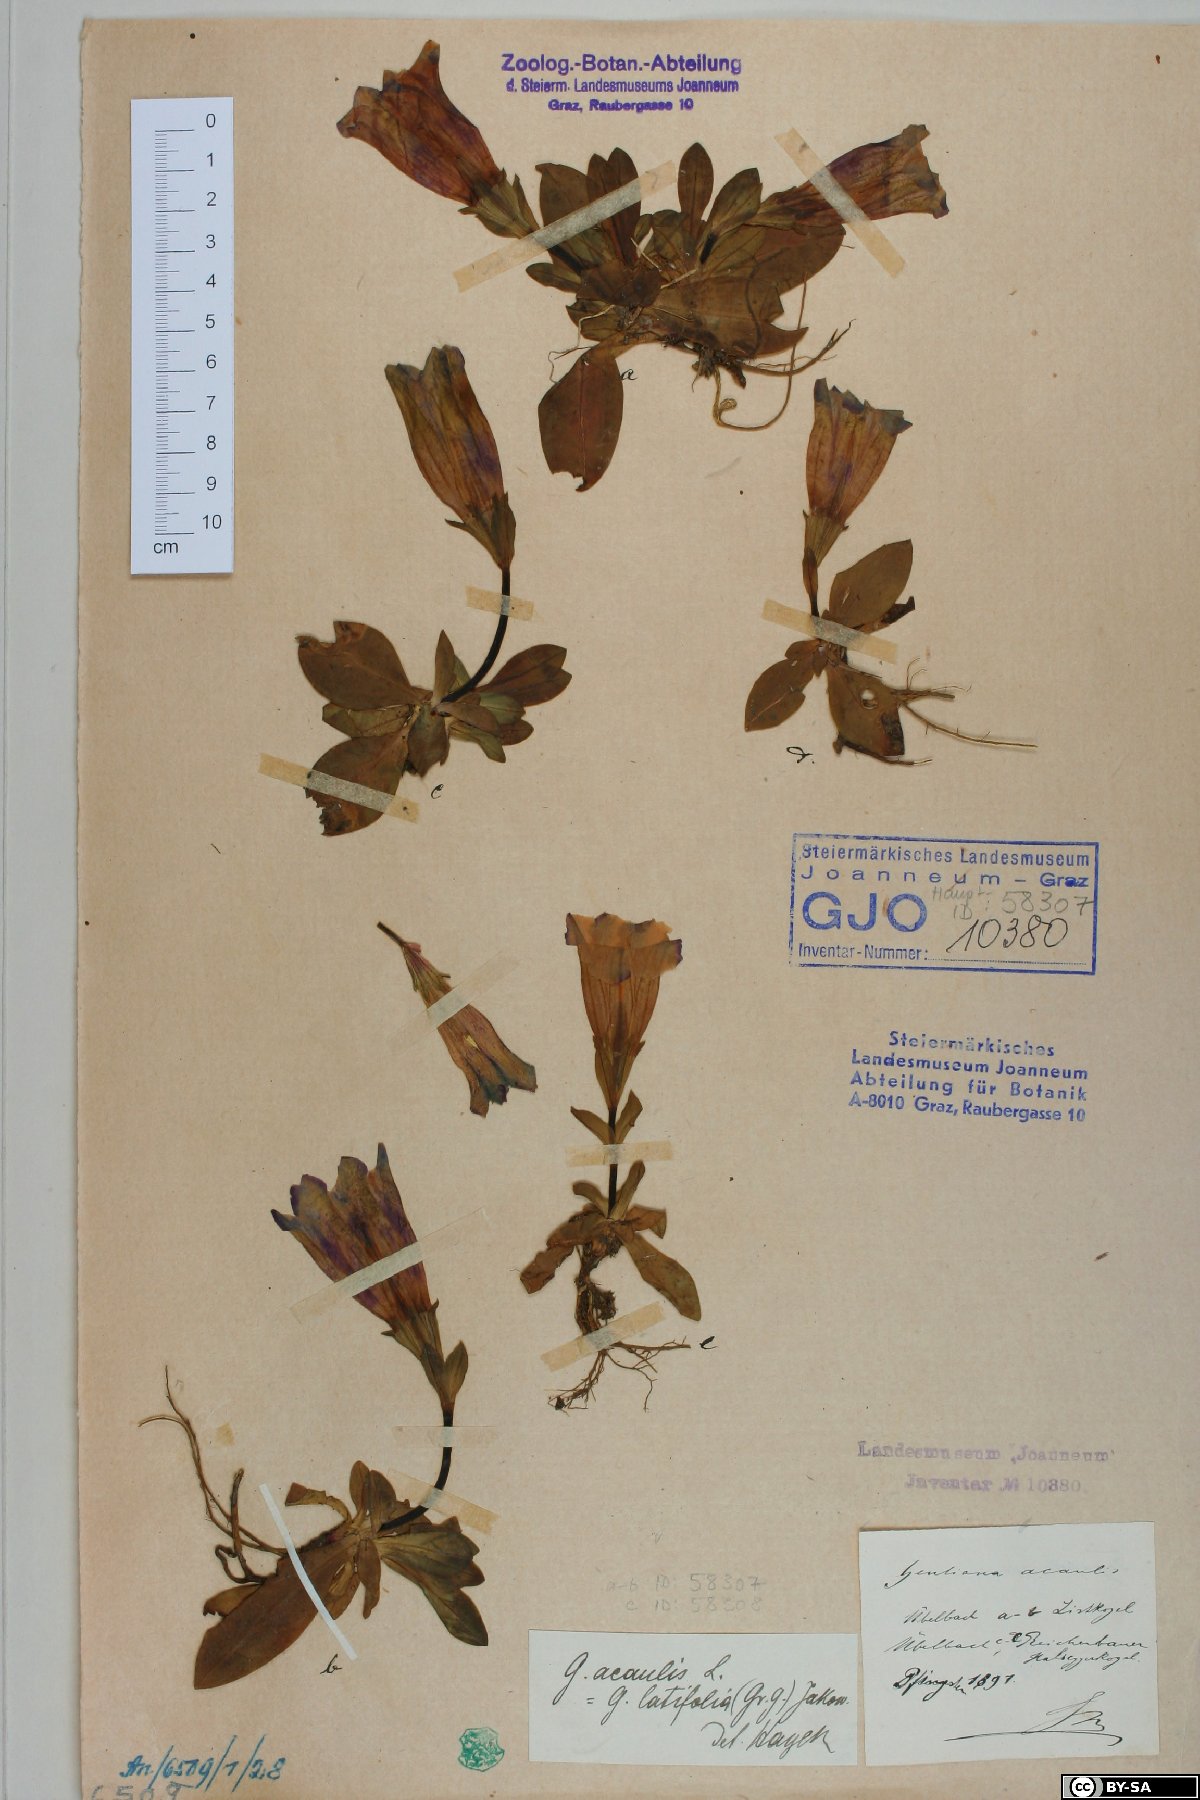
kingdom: Plantae
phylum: Tracheophyta
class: Magnoliopsida
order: Gentianales
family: Gentianaceae
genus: Gentiana
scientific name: Gentiana acaulis
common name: Trumpet gentian
